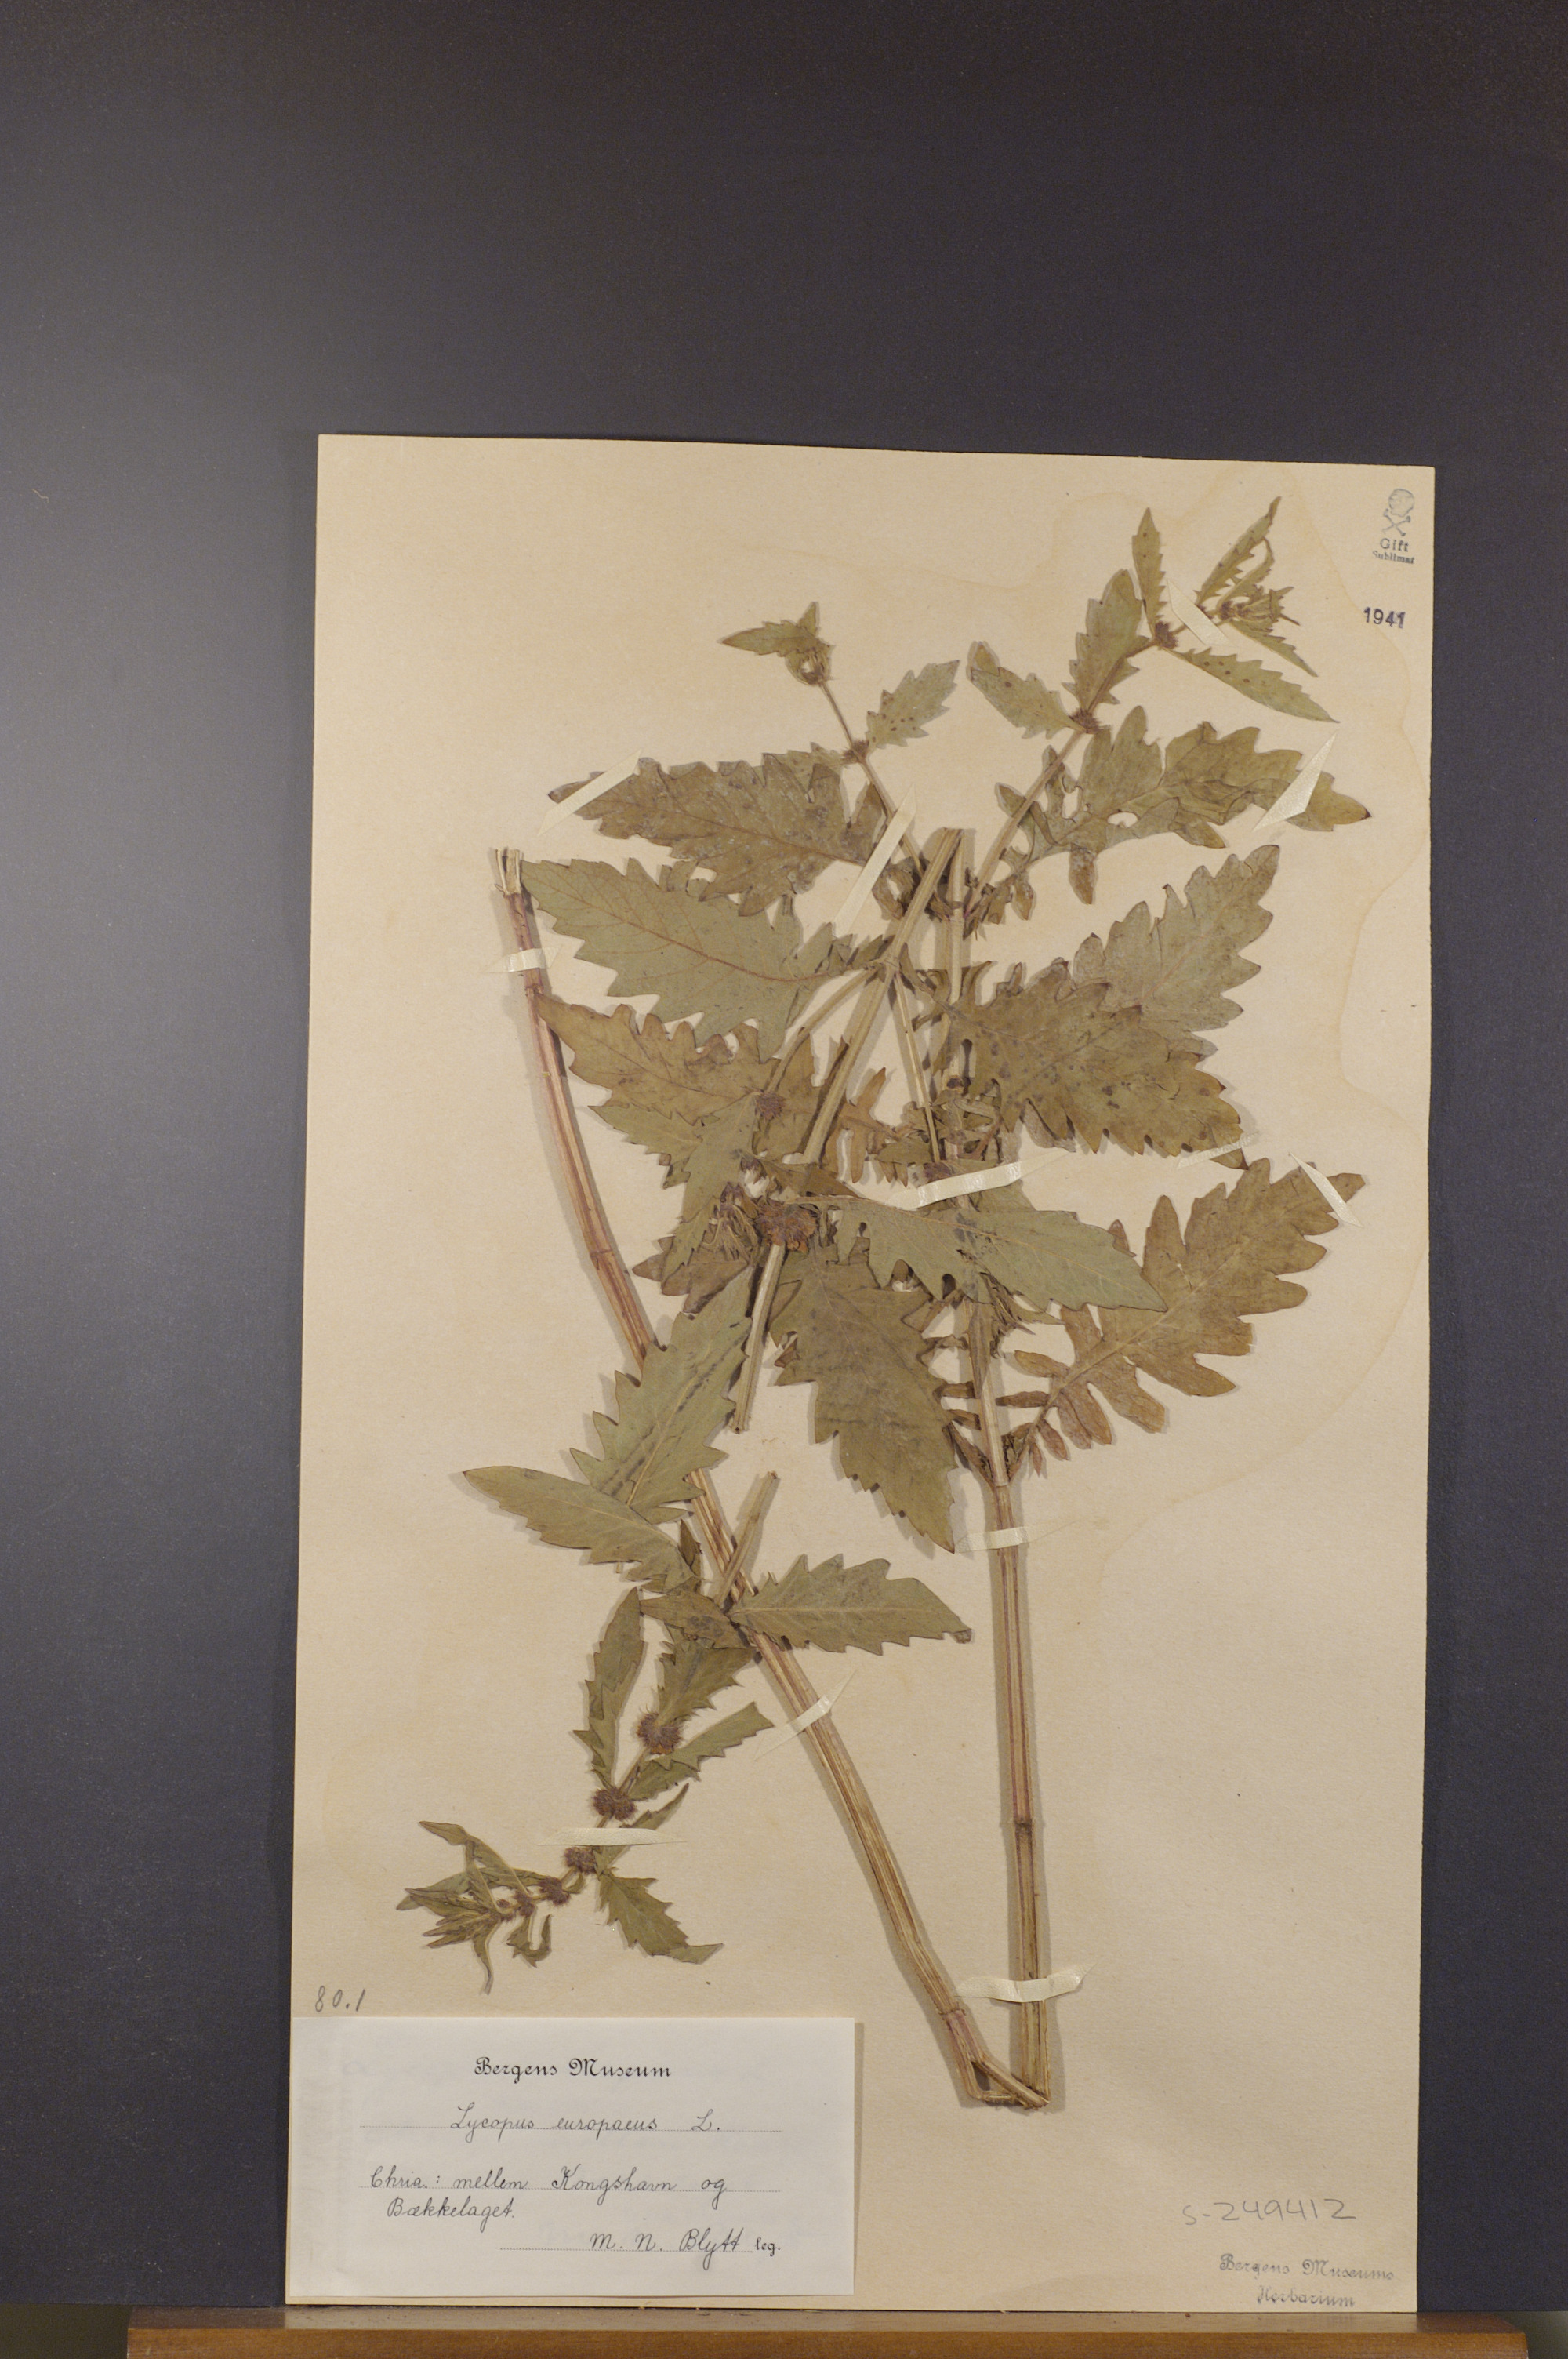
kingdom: Plantae
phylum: Tracheophyta
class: Magnoliopsida
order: Lamiales
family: Lamiaceae
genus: Lycopus
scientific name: Lycopus europaeus
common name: European bugleweed
